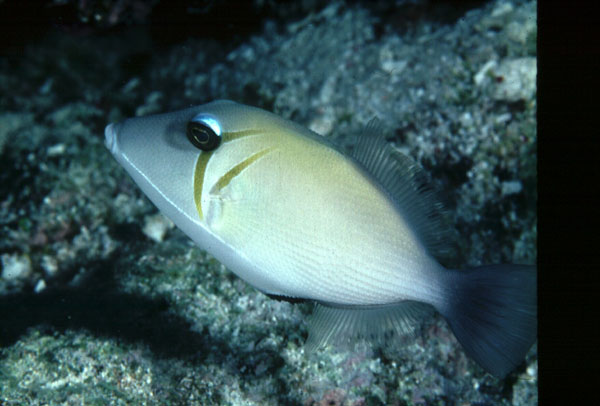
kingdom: Animalia
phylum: Chordata
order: Tetraodontiformes
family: Balistidae
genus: Sufflamen
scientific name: Sufflamen bursa
